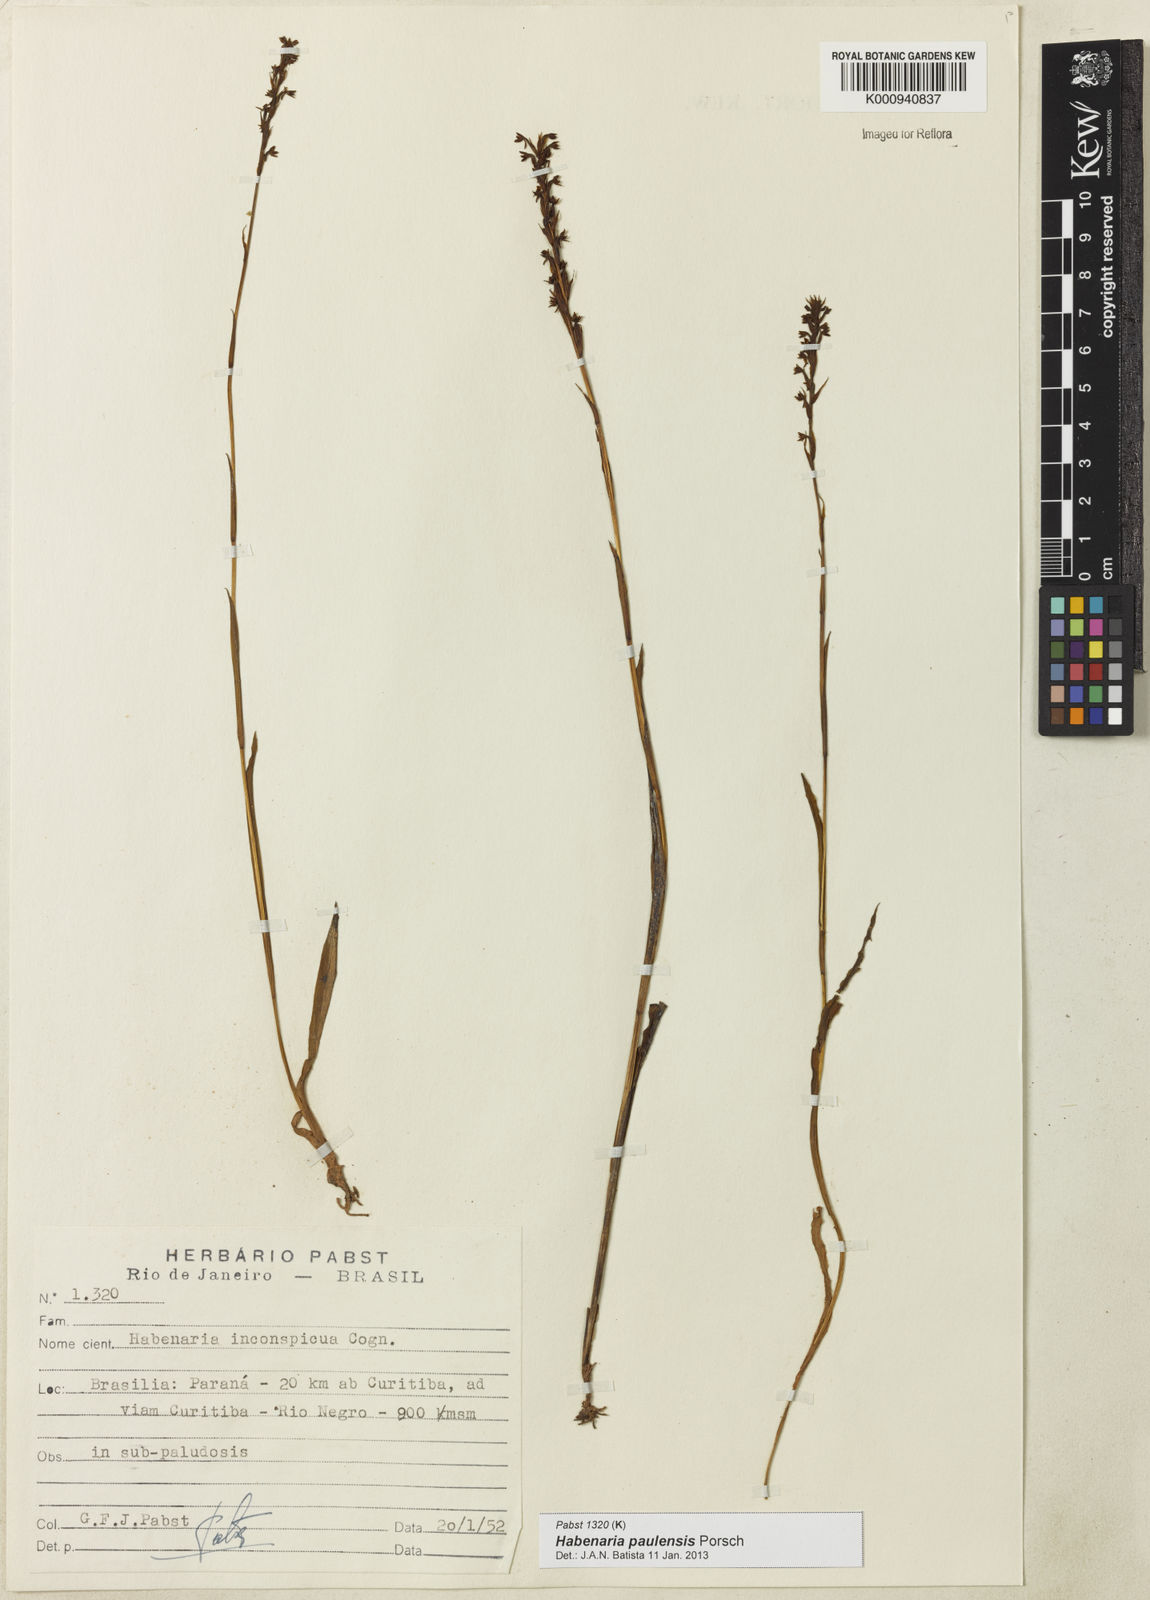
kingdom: Plantae
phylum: Tracheophyta
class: Liliopsida
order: Asparagales
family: Orchidaceae
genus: Habenaria
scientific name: Habenaria paulensis
